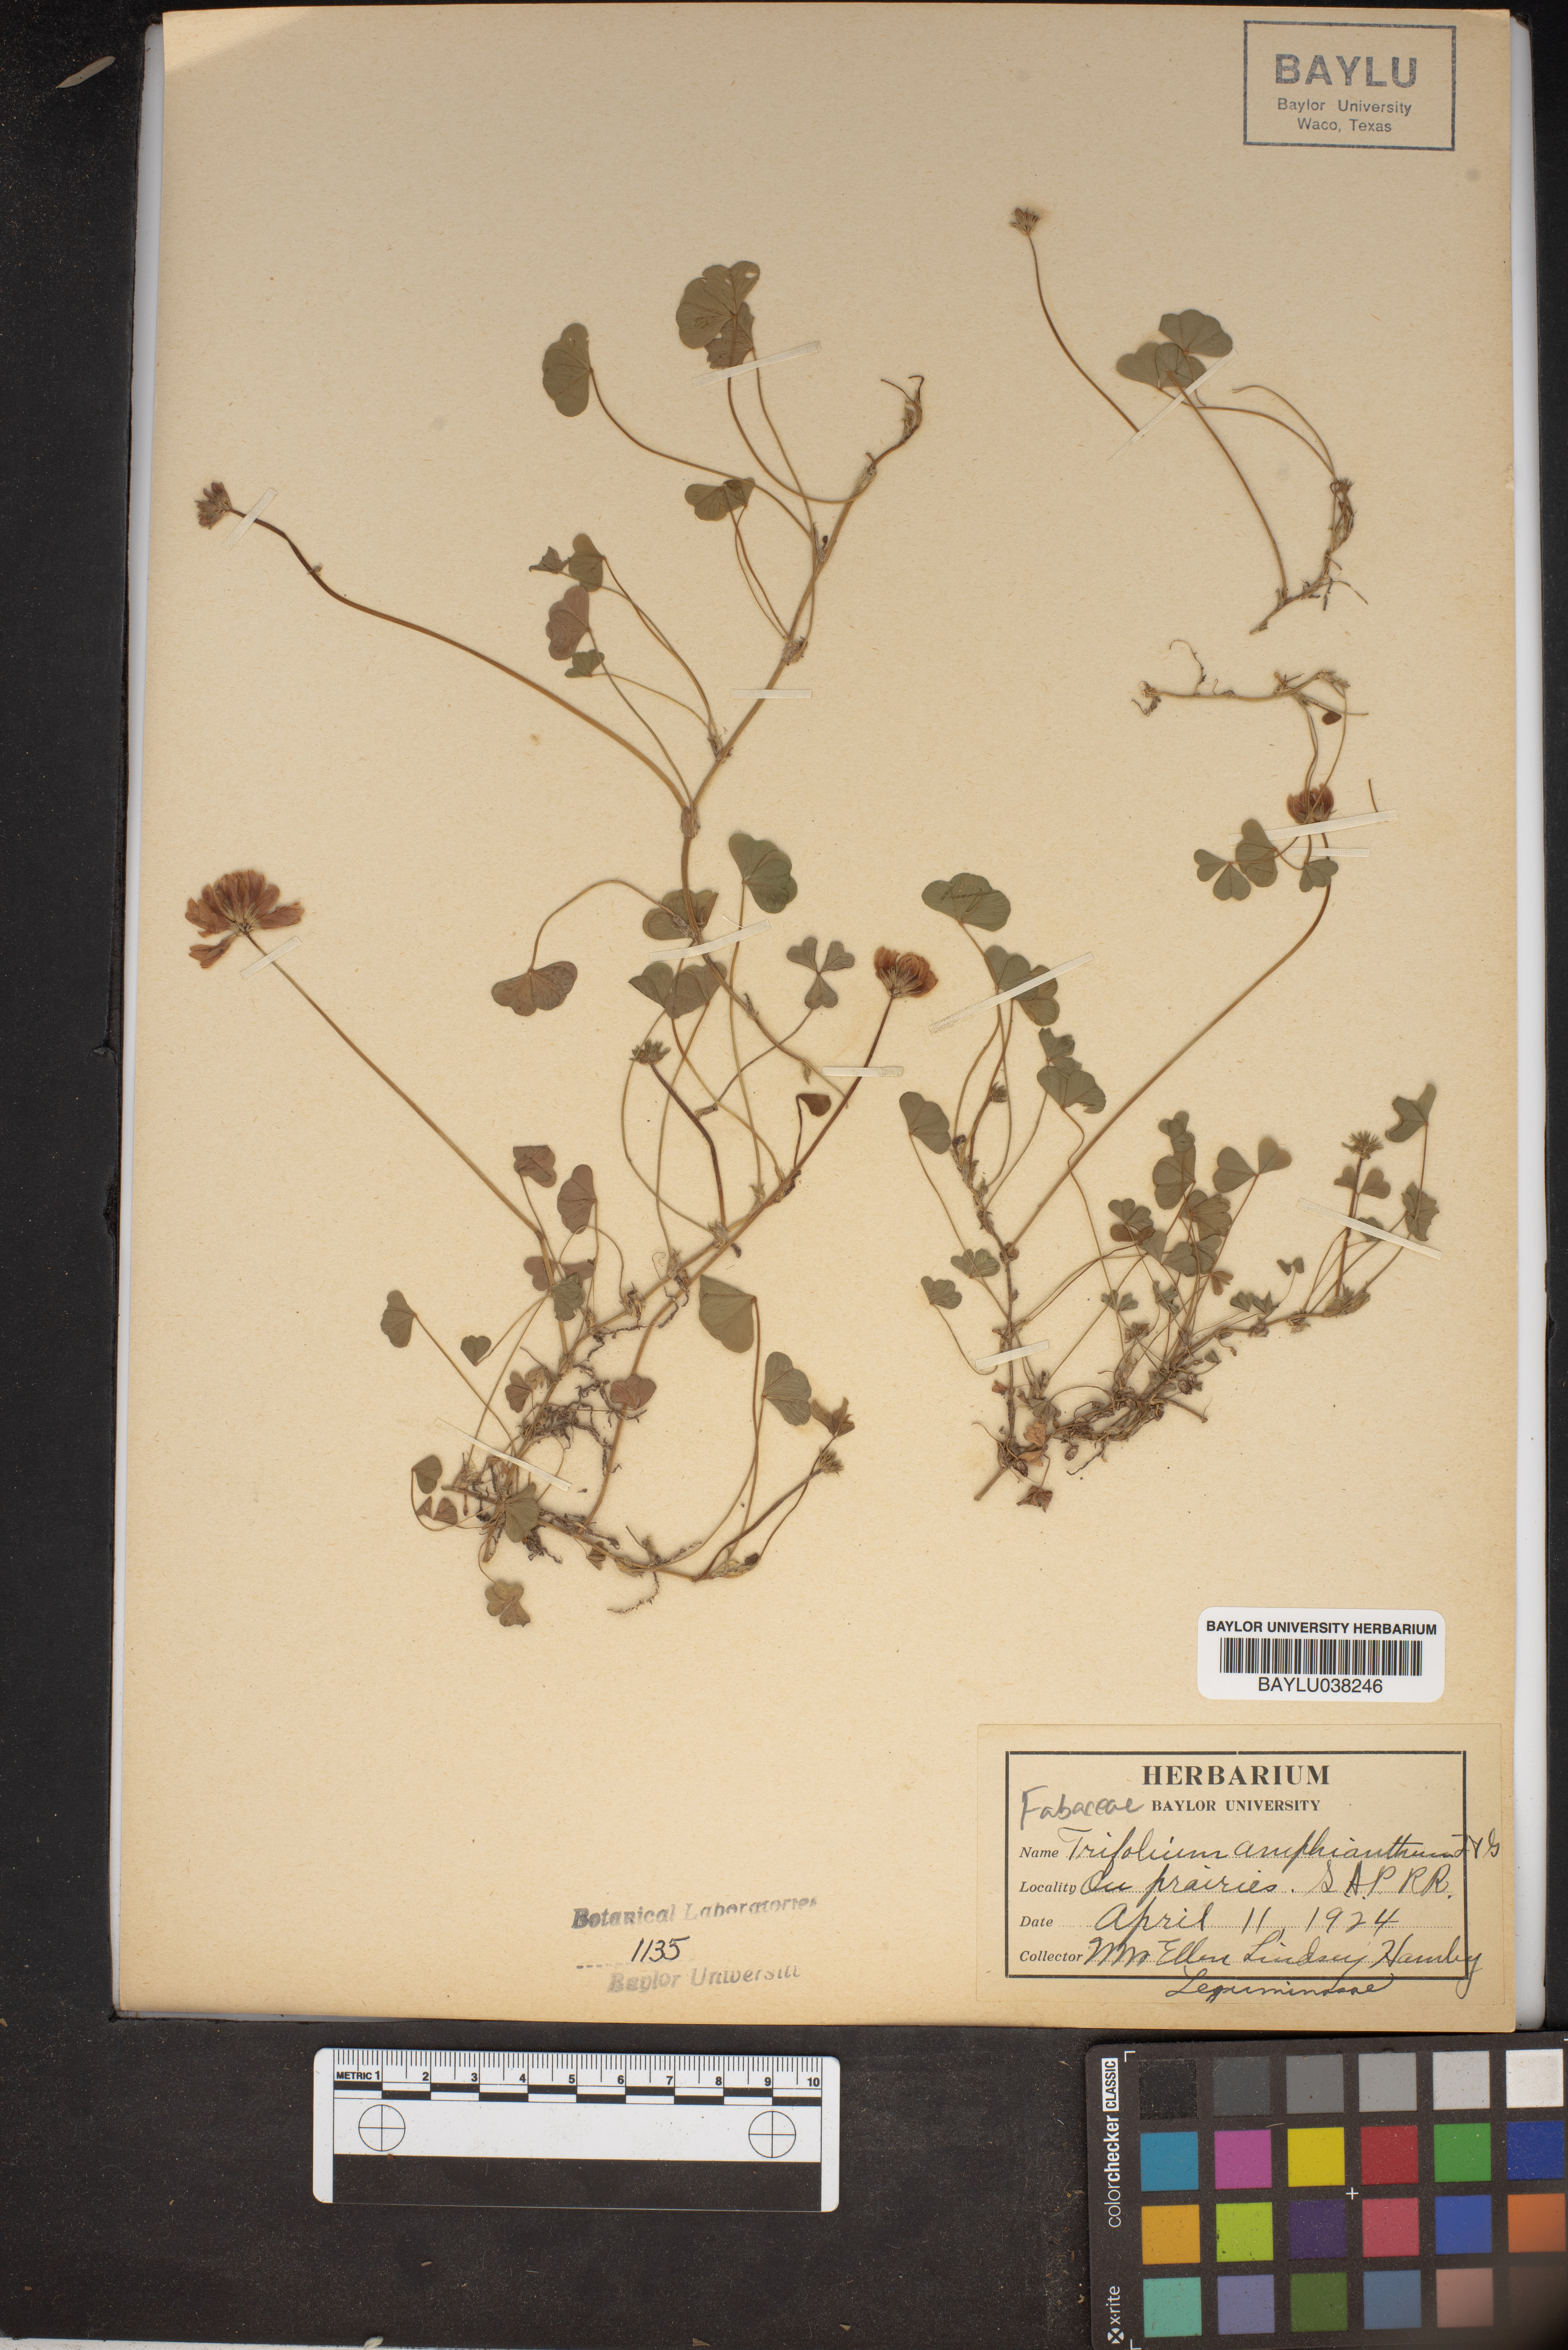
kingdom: Plantae
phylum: Tracheophyta
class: Magnoliopsida
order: Fabales
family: Fabaceae
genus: Trifolium
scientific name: Trifolium amphianthum
